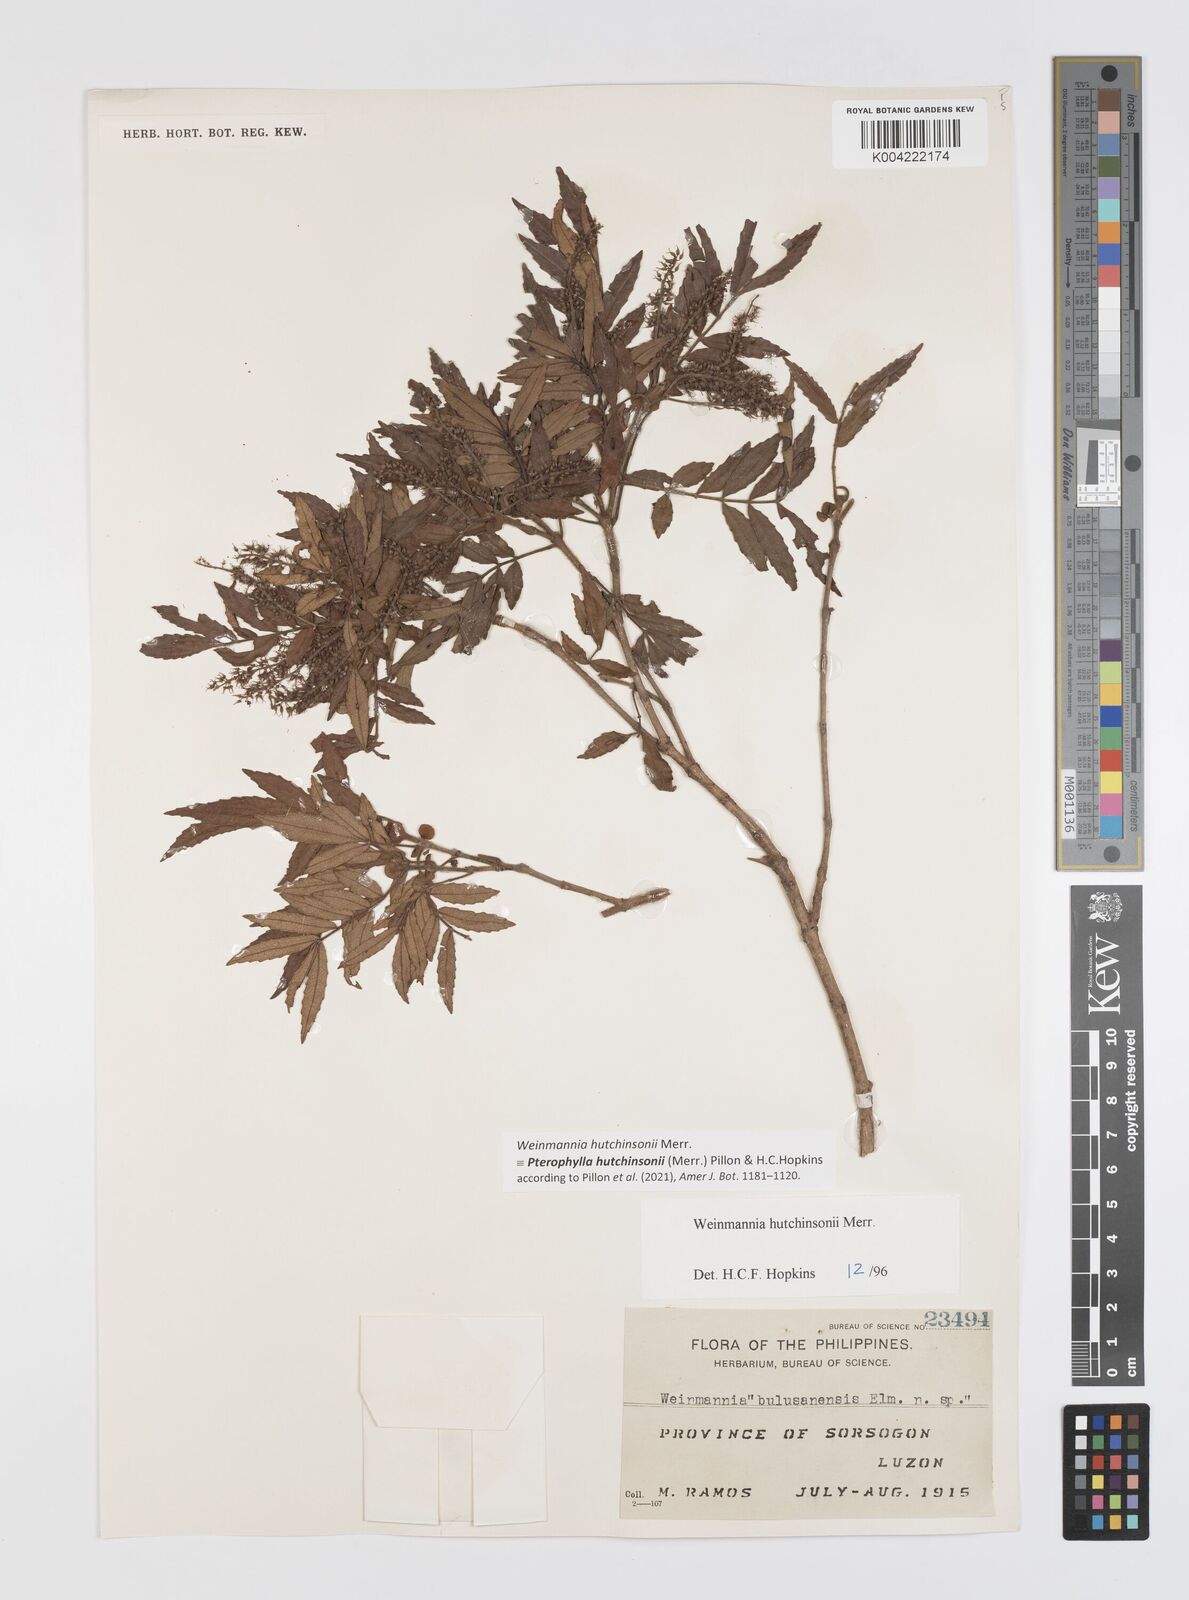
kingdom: Plantae
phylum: Tracheophyta
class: Magnoliopsida
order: Oxalidales
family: Cunoniaceae
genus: Pterophylla
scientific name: Pterophylla hutchinsonii
